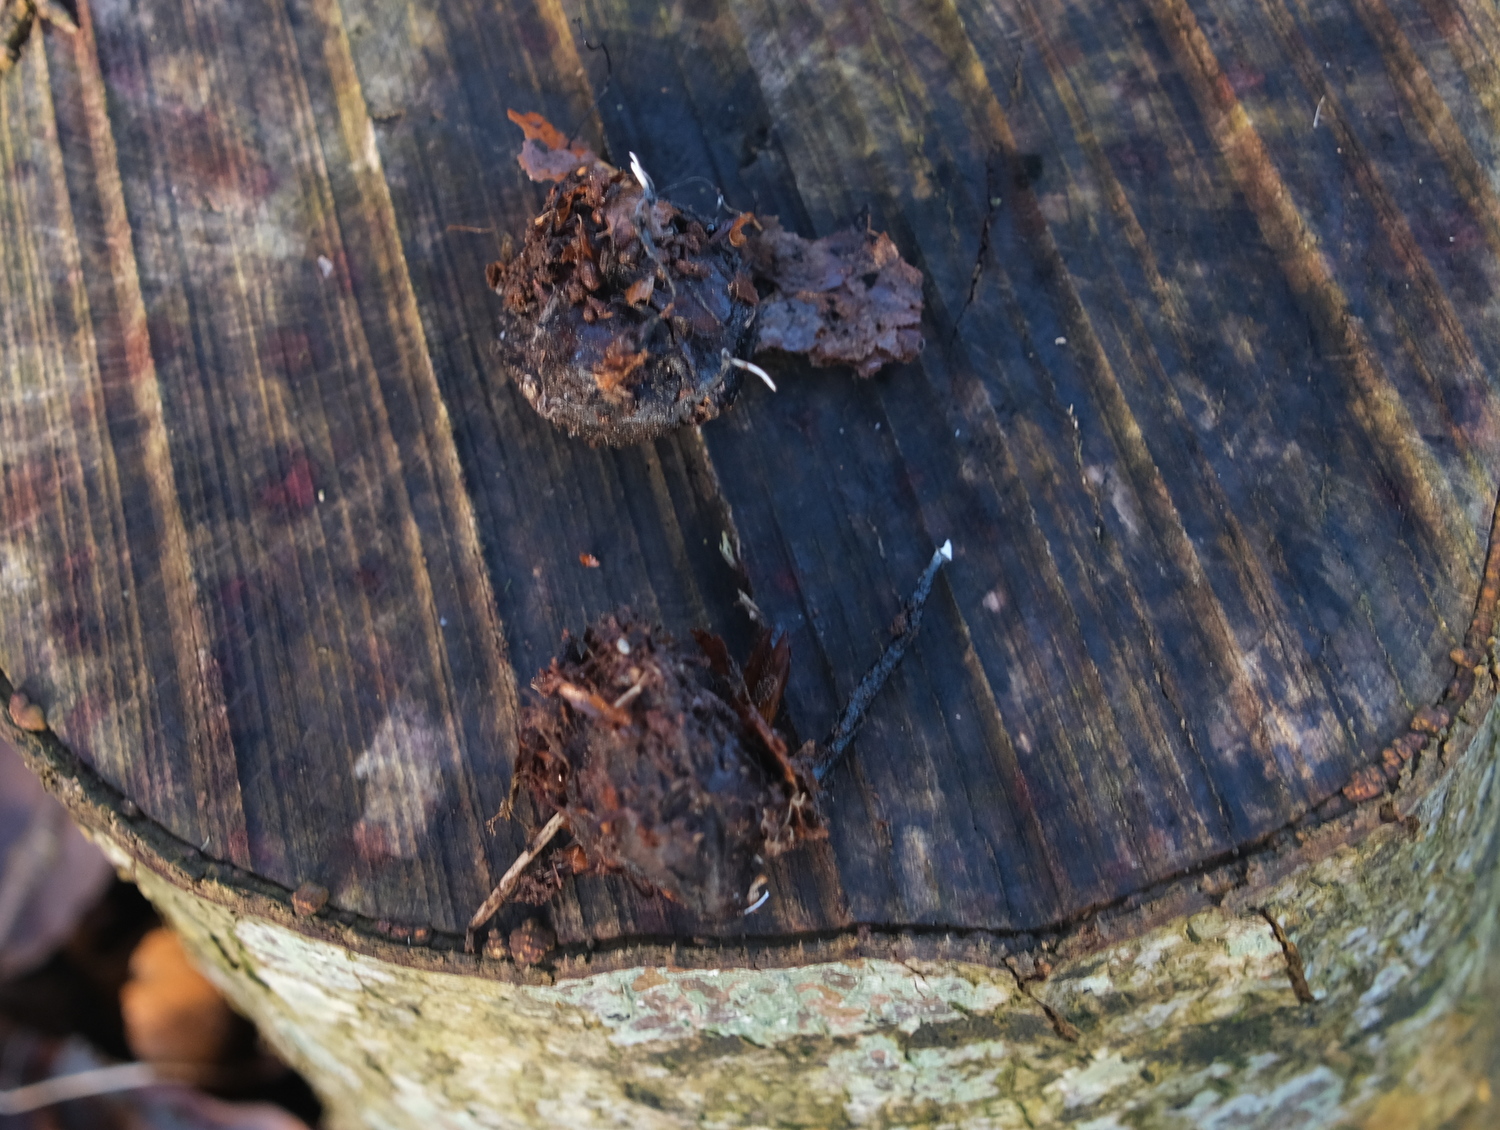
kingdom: Fungi
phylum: Ascomycota
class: Sordariomycetes
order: Xylariales
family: Xylariaceae
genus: Xylaria
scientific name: Xylaria carpophila
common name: bogskål-stødsvamp
